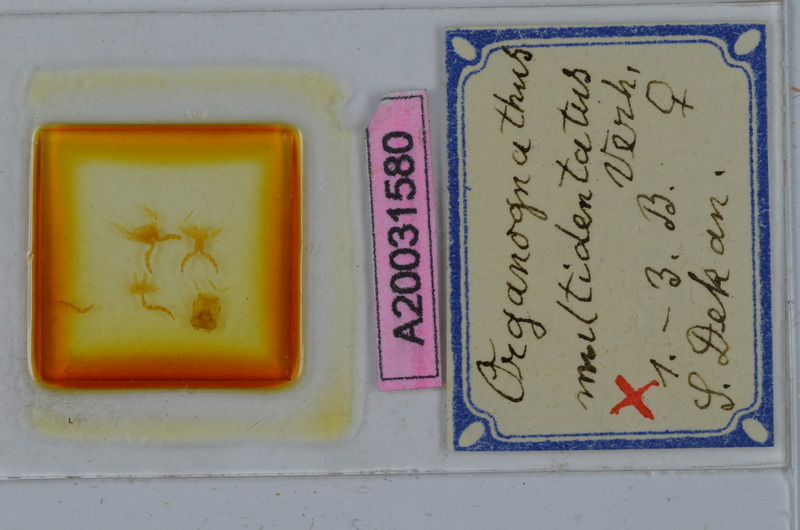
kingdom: Animalia
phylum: Arthropoda
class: Diplopoda
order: Spirostreptida
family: Harpagophoridae
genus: Organognathus
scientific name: Organognathus multidentatus
